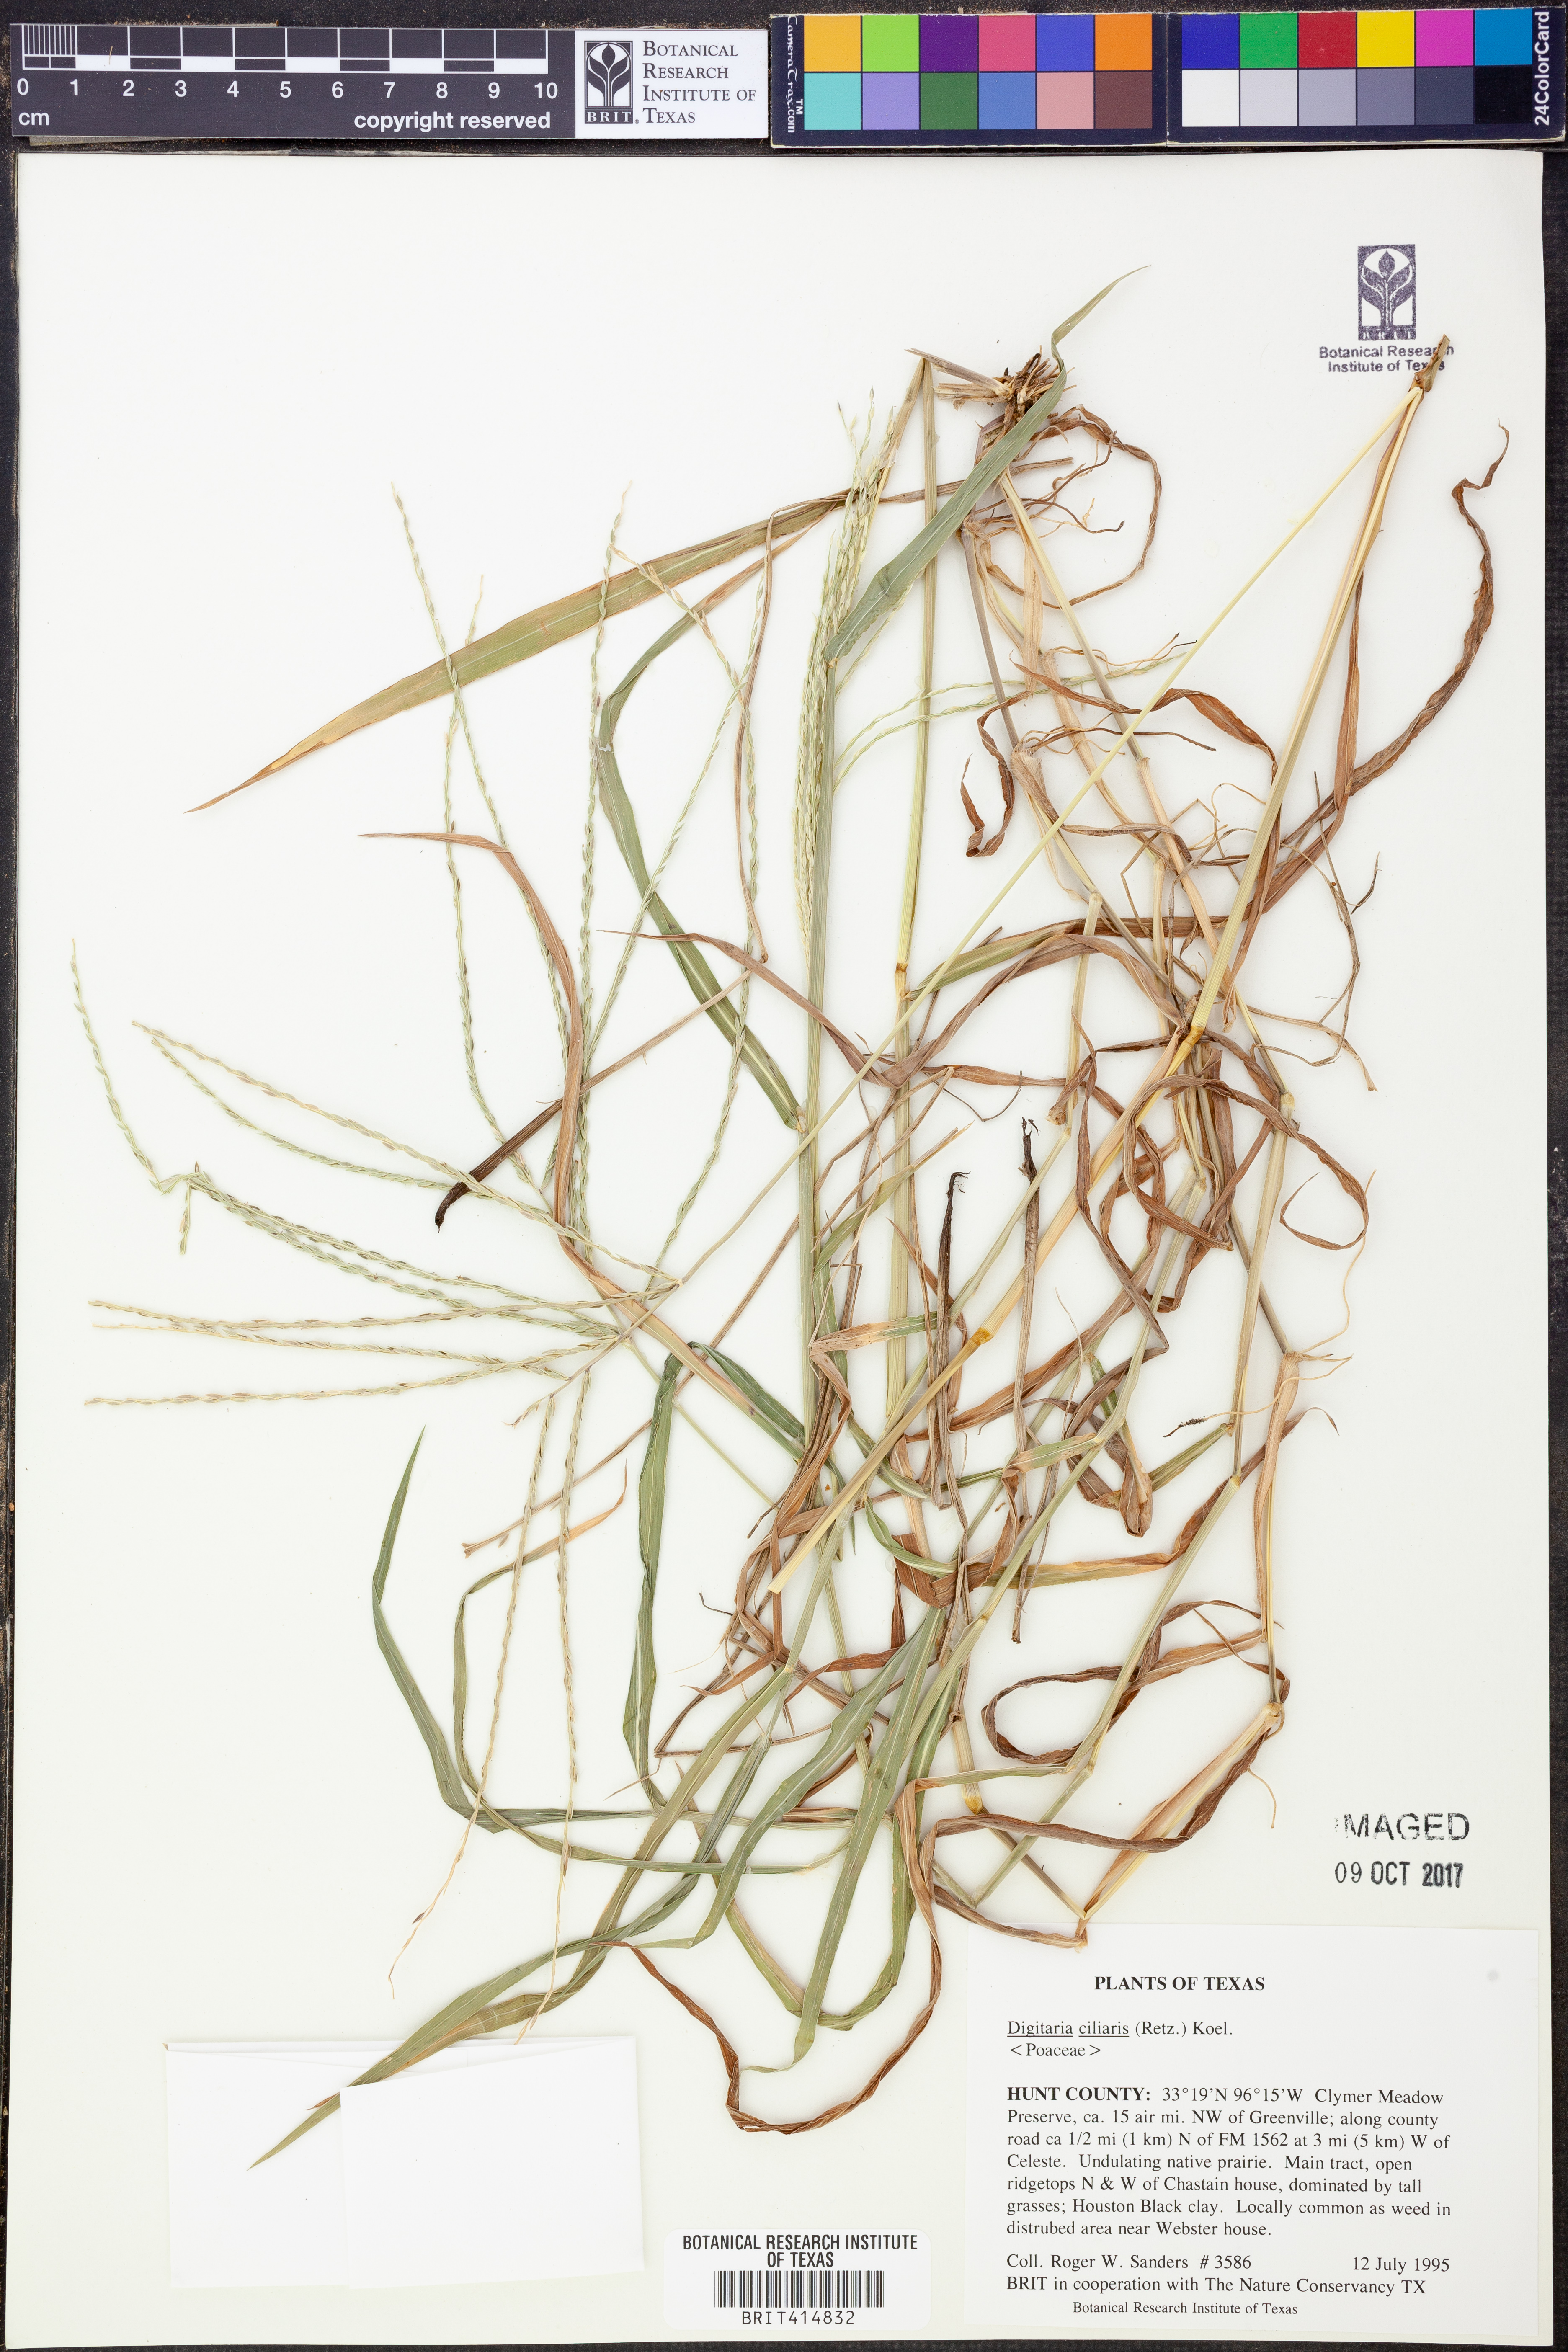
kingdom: Plantae
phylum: Tracheophyta
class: Liliopsida
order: Poales
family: Poaceae
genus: Digitaria
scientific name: Digitaria ciliaris
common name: Tropical finger-grass
